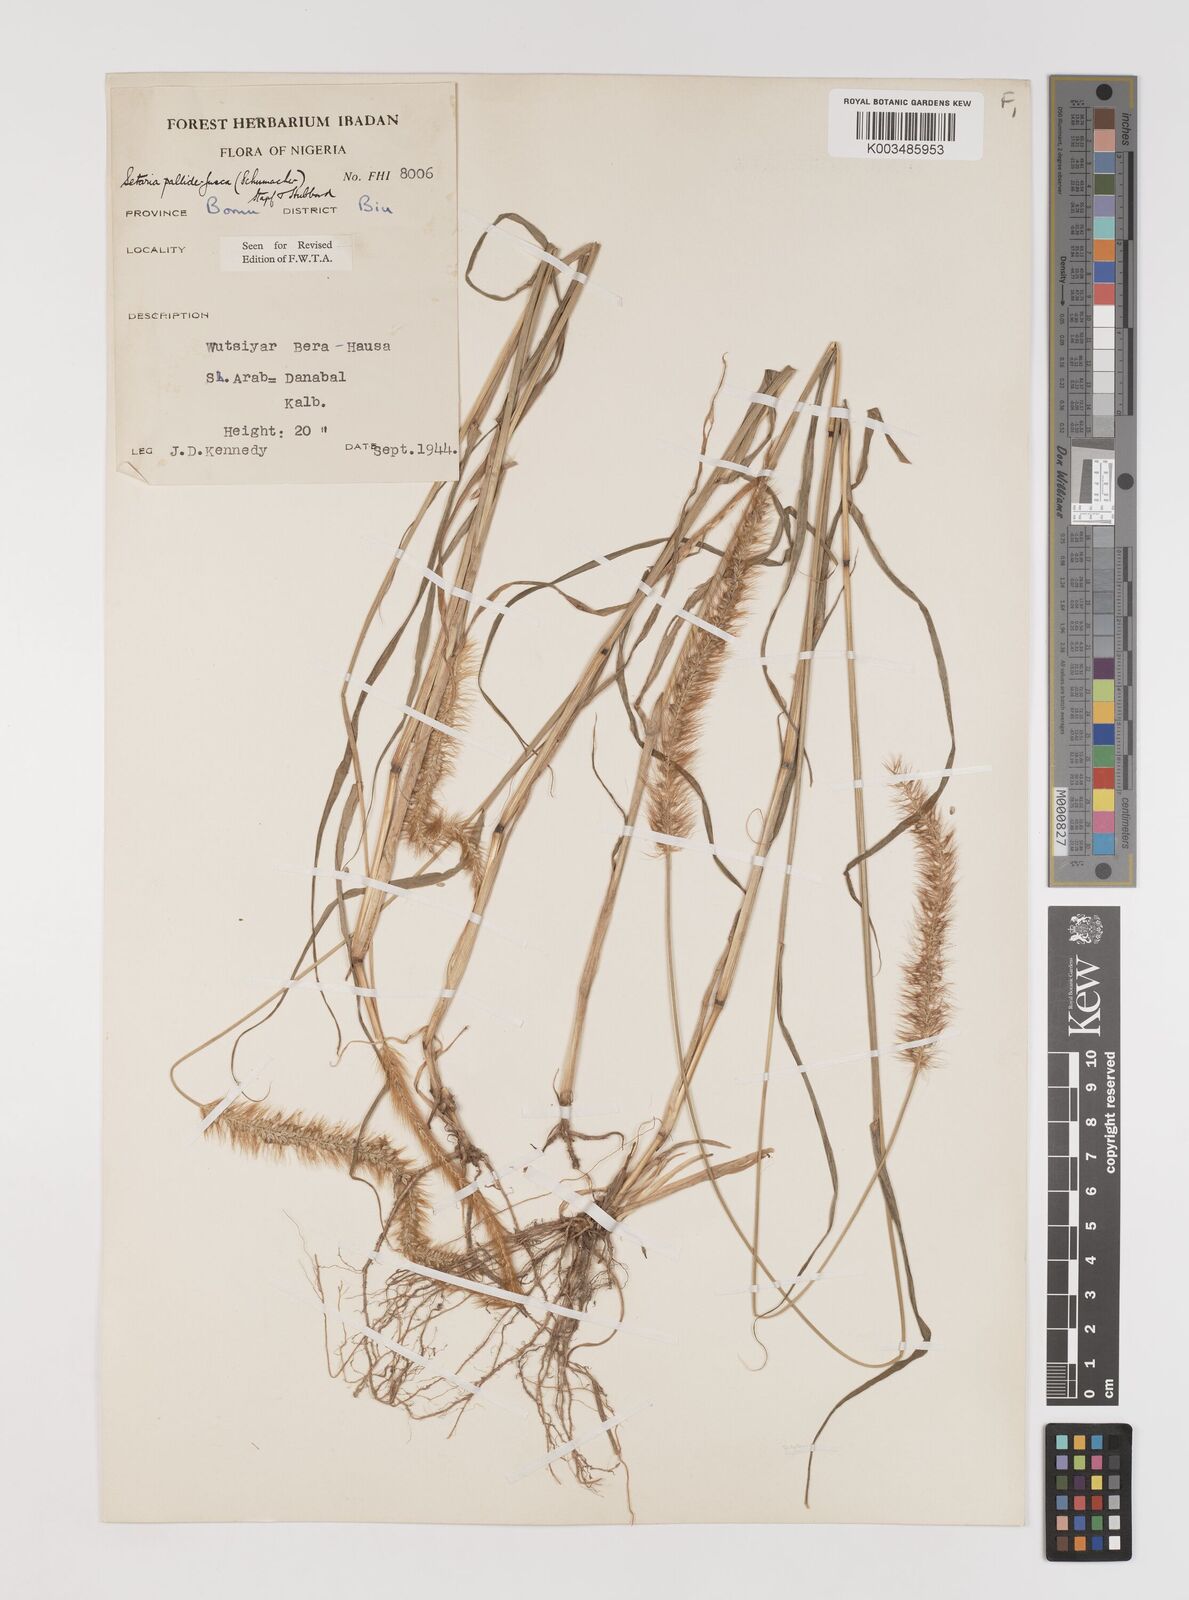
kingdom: Plantae
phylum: Tracheophyta
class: Liliopsida
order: Poales
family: Poaceae
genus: Setaria
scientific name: Setaria pumila
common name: Yellow bristle-grass
